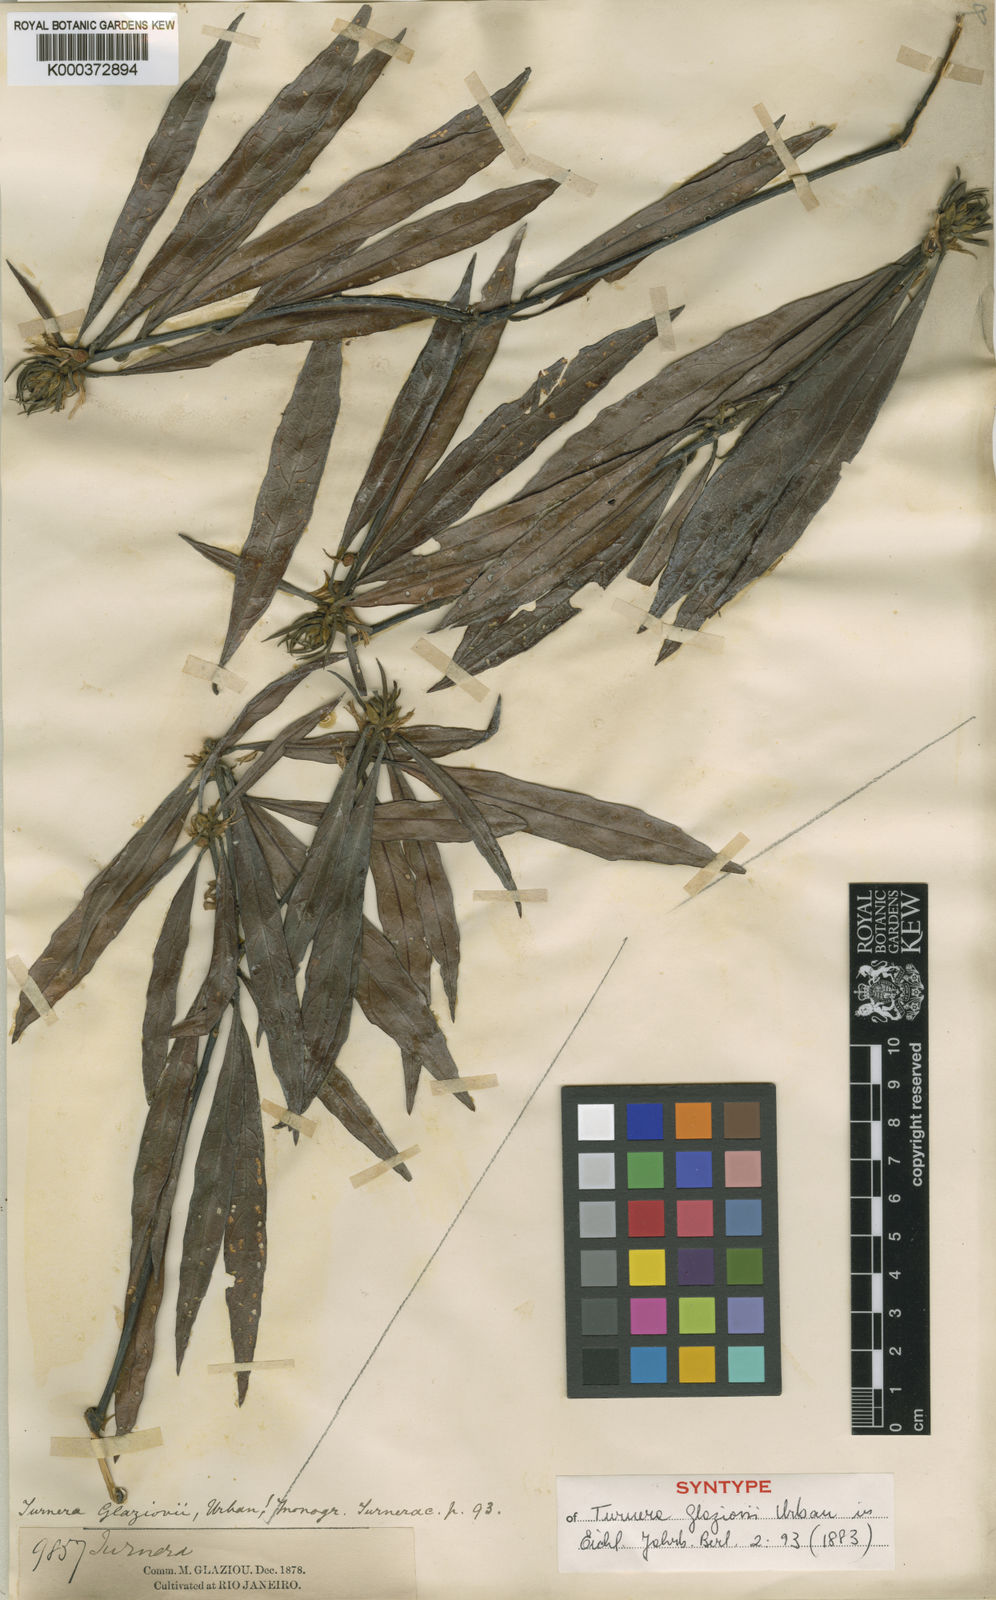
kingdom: Plantae
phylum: Tracheophyta
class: Magnoliopsida
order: Malpighiales
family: Turneraceae
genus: Turnera
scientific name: Turnera glaziovii
